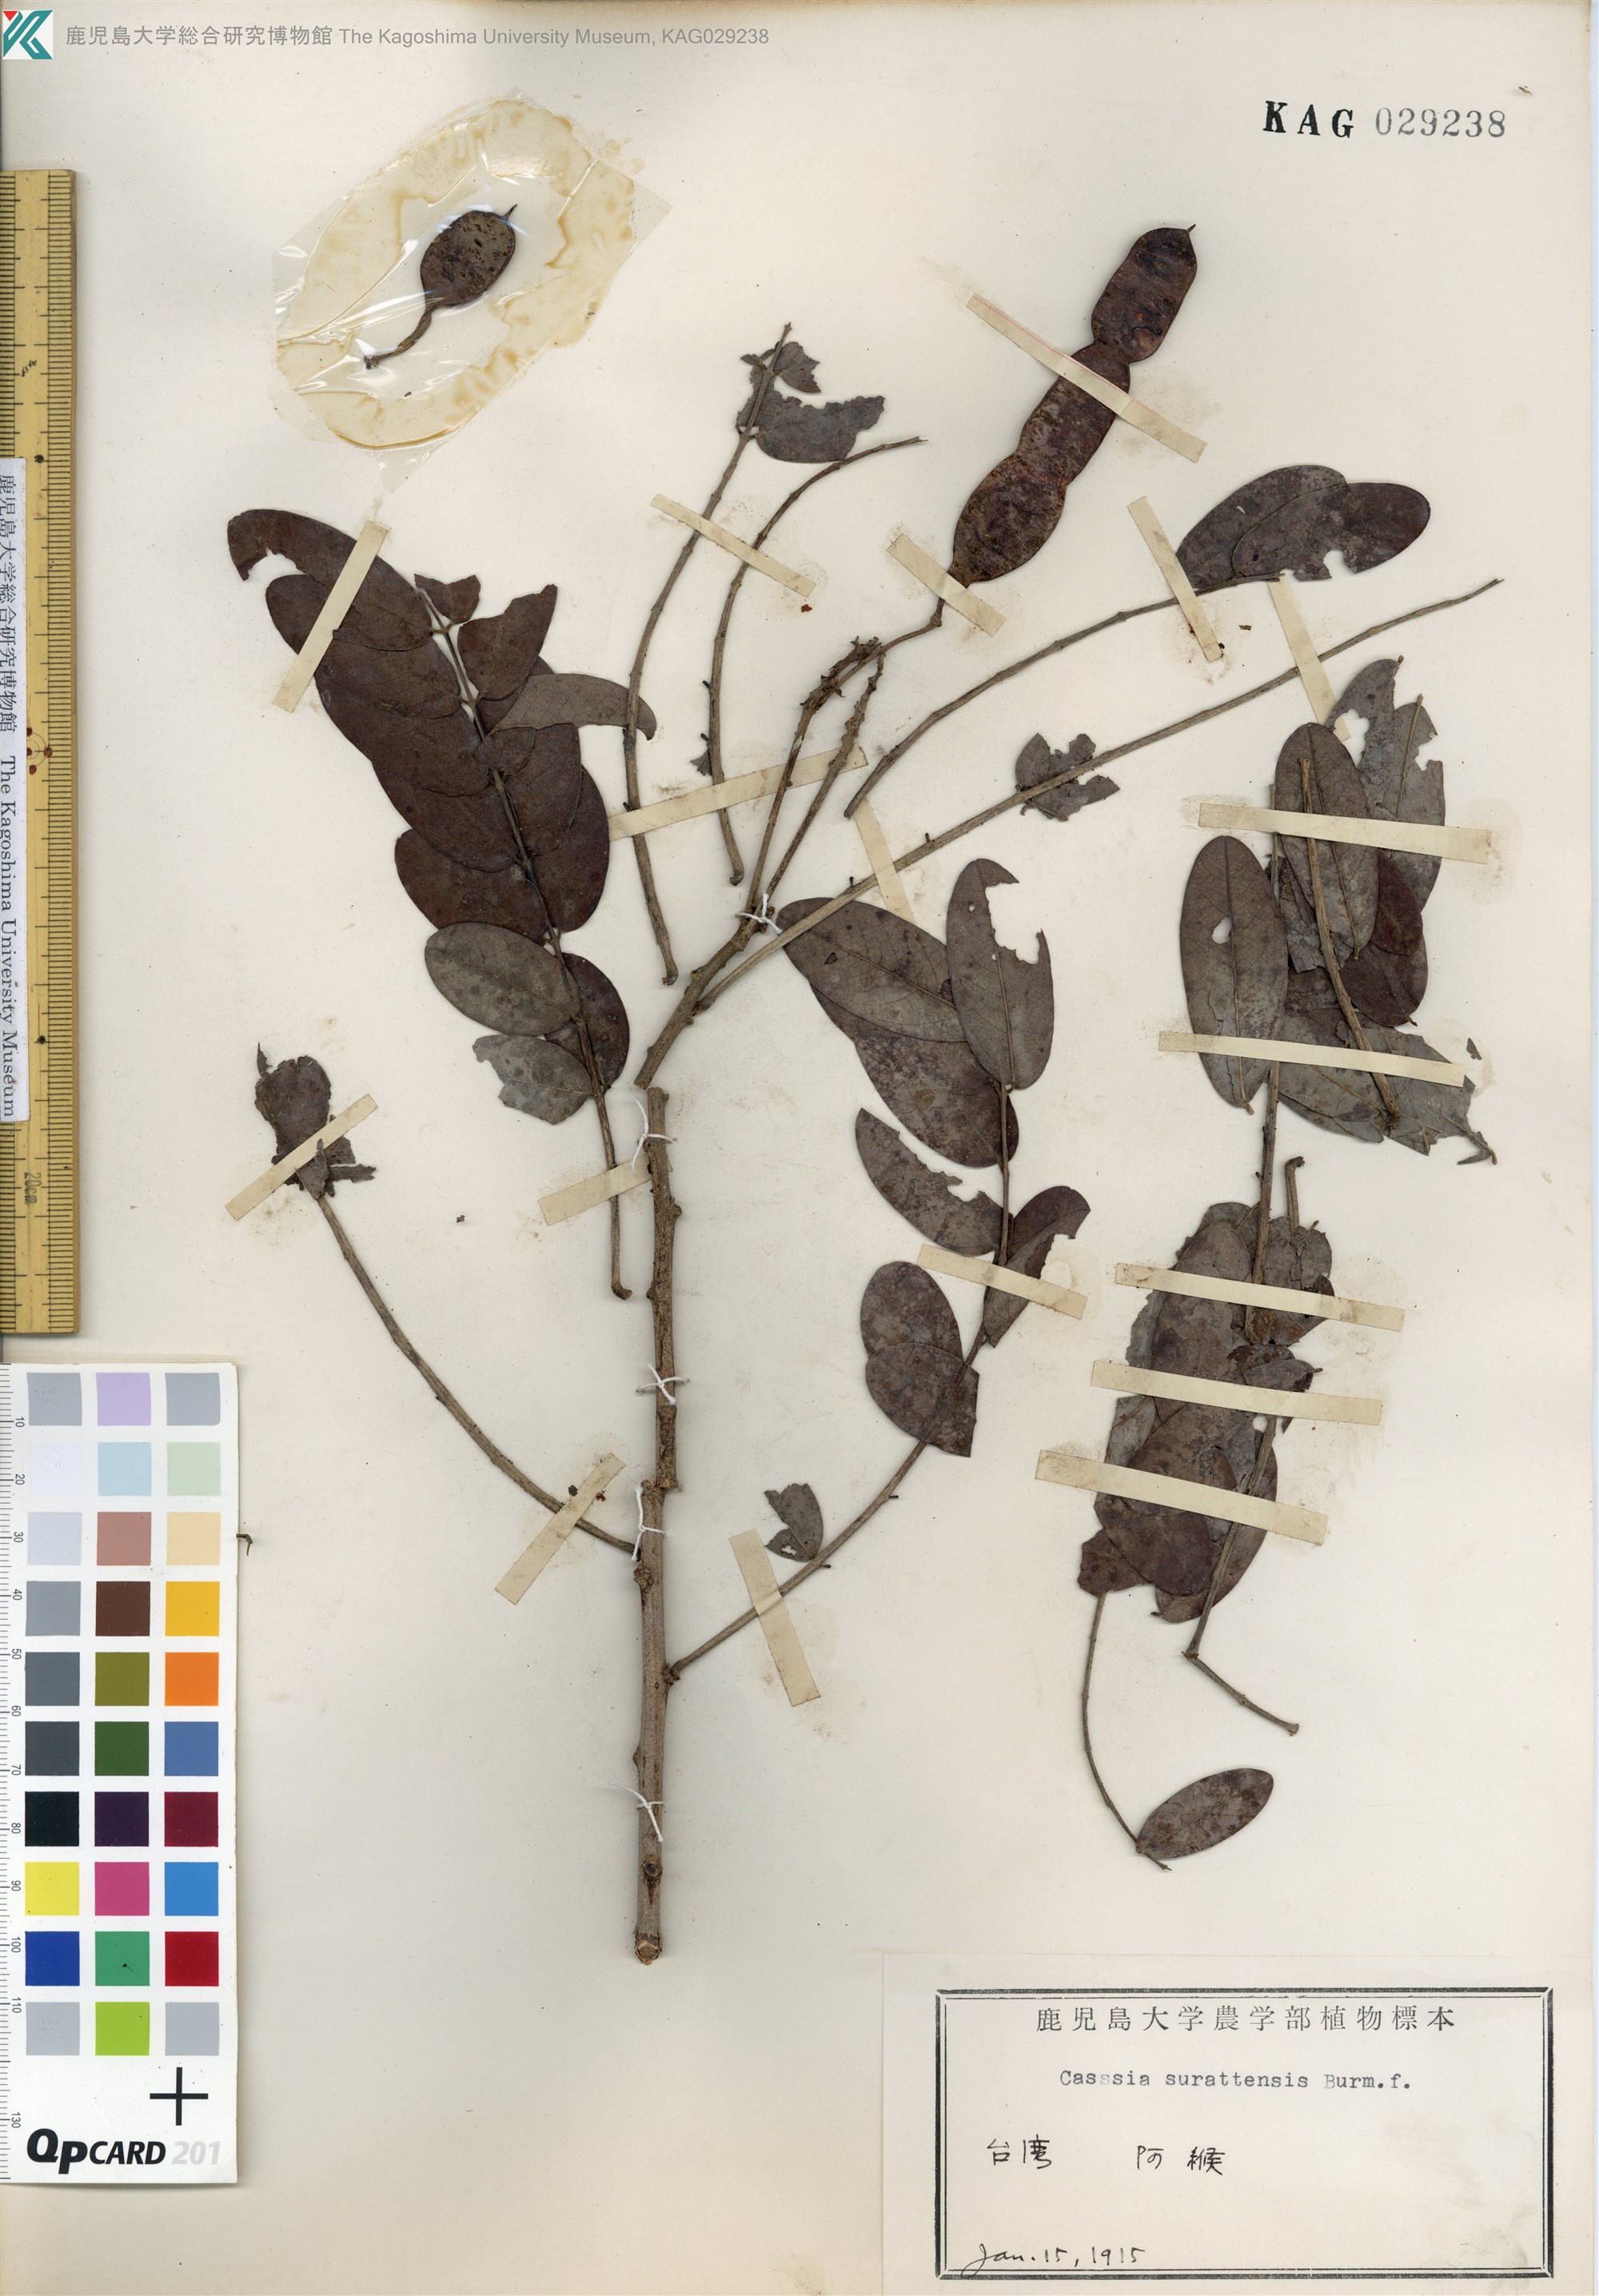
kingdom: Plantae
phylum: Tracheophyta
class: Magnoliopsida
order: Fabales
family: Fabaceae
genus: Senna
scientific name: Senna surattensis
